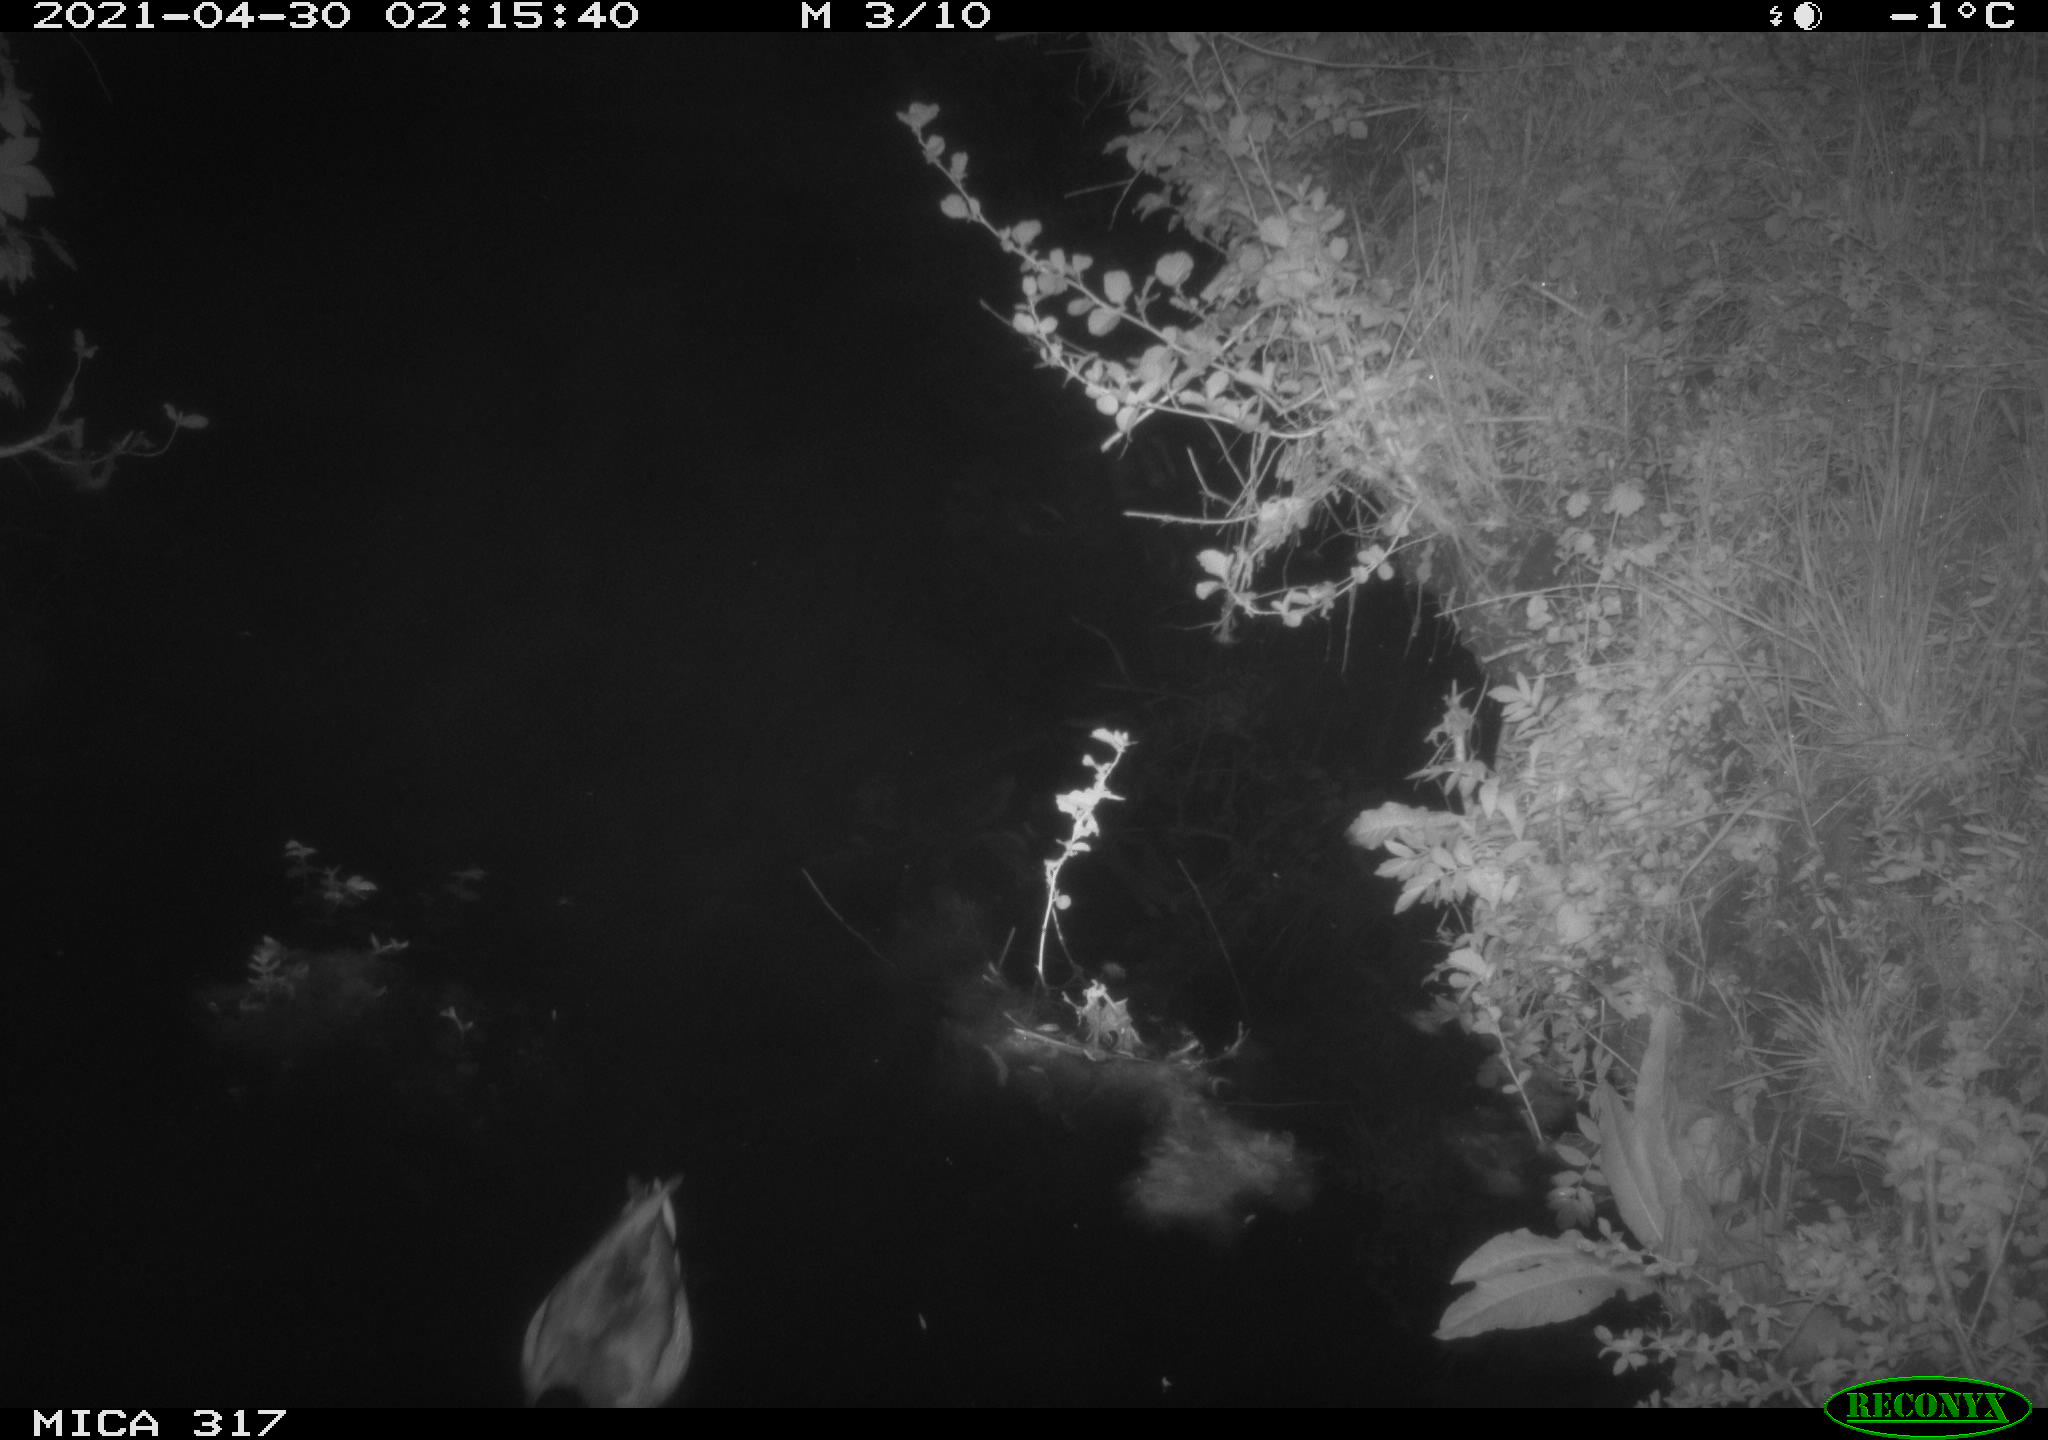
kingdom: Animalia
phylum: Chordata
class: Aves
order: Anseriformes
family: Anatidae
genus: Anas
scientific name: Anas
